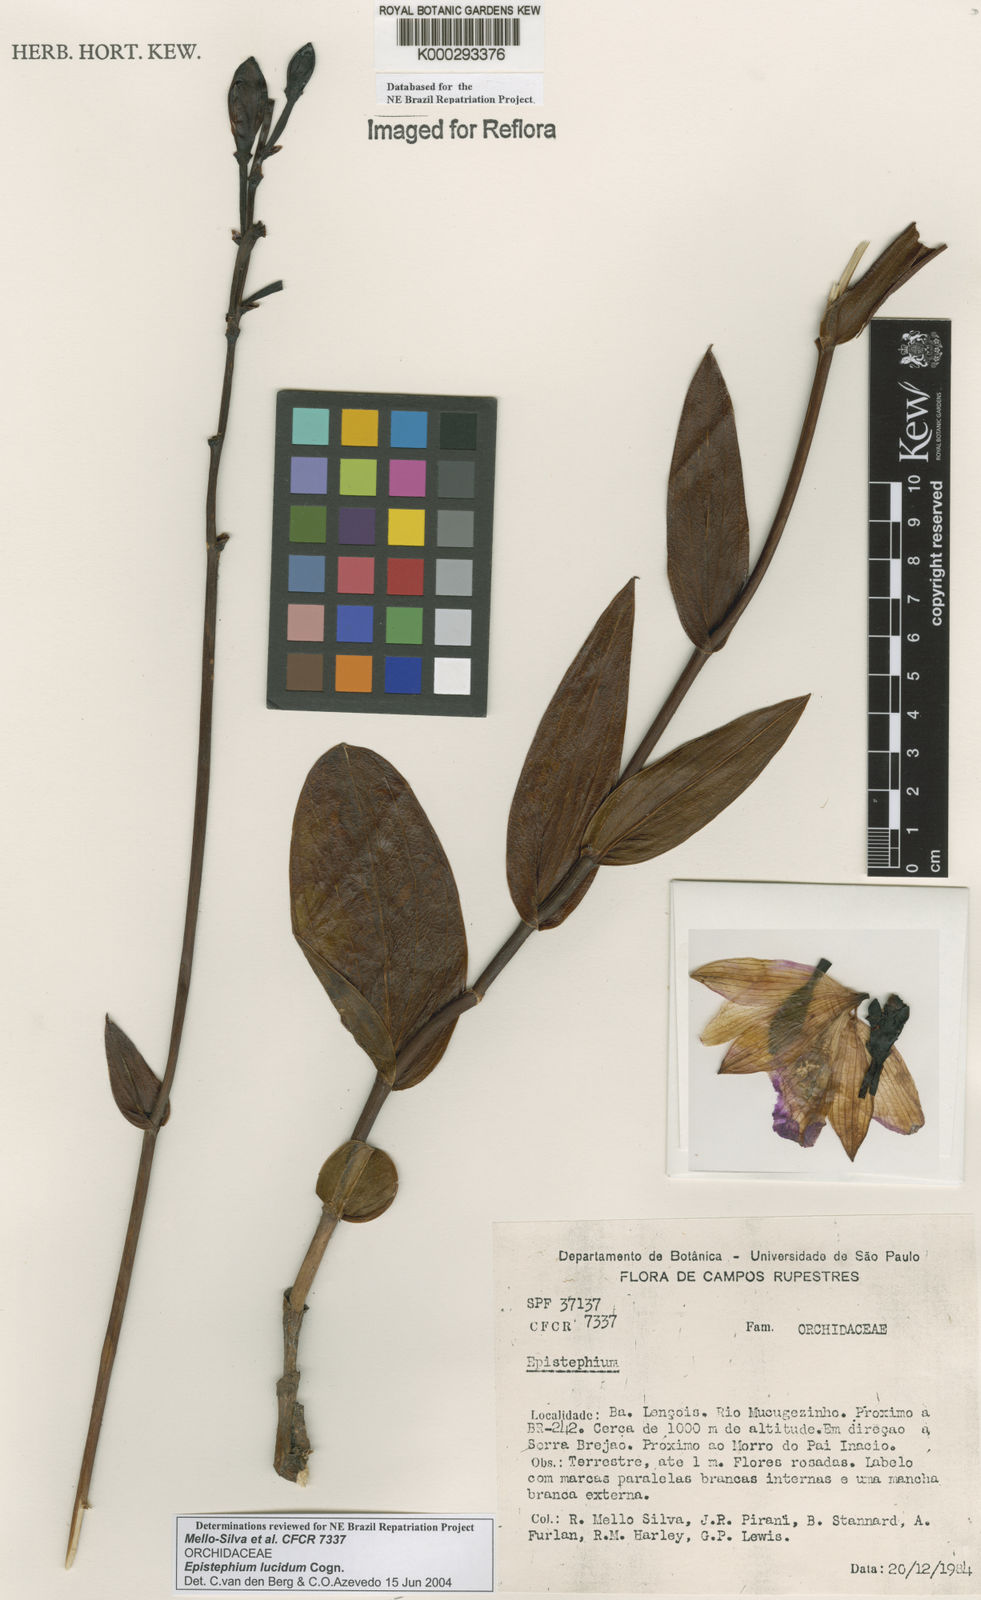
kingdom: Plantae
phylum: Tracheophyta
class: Liliopsida
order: Asparagales
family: Orchidaceae
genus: Epistephium
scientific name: Epistephium williamsii
